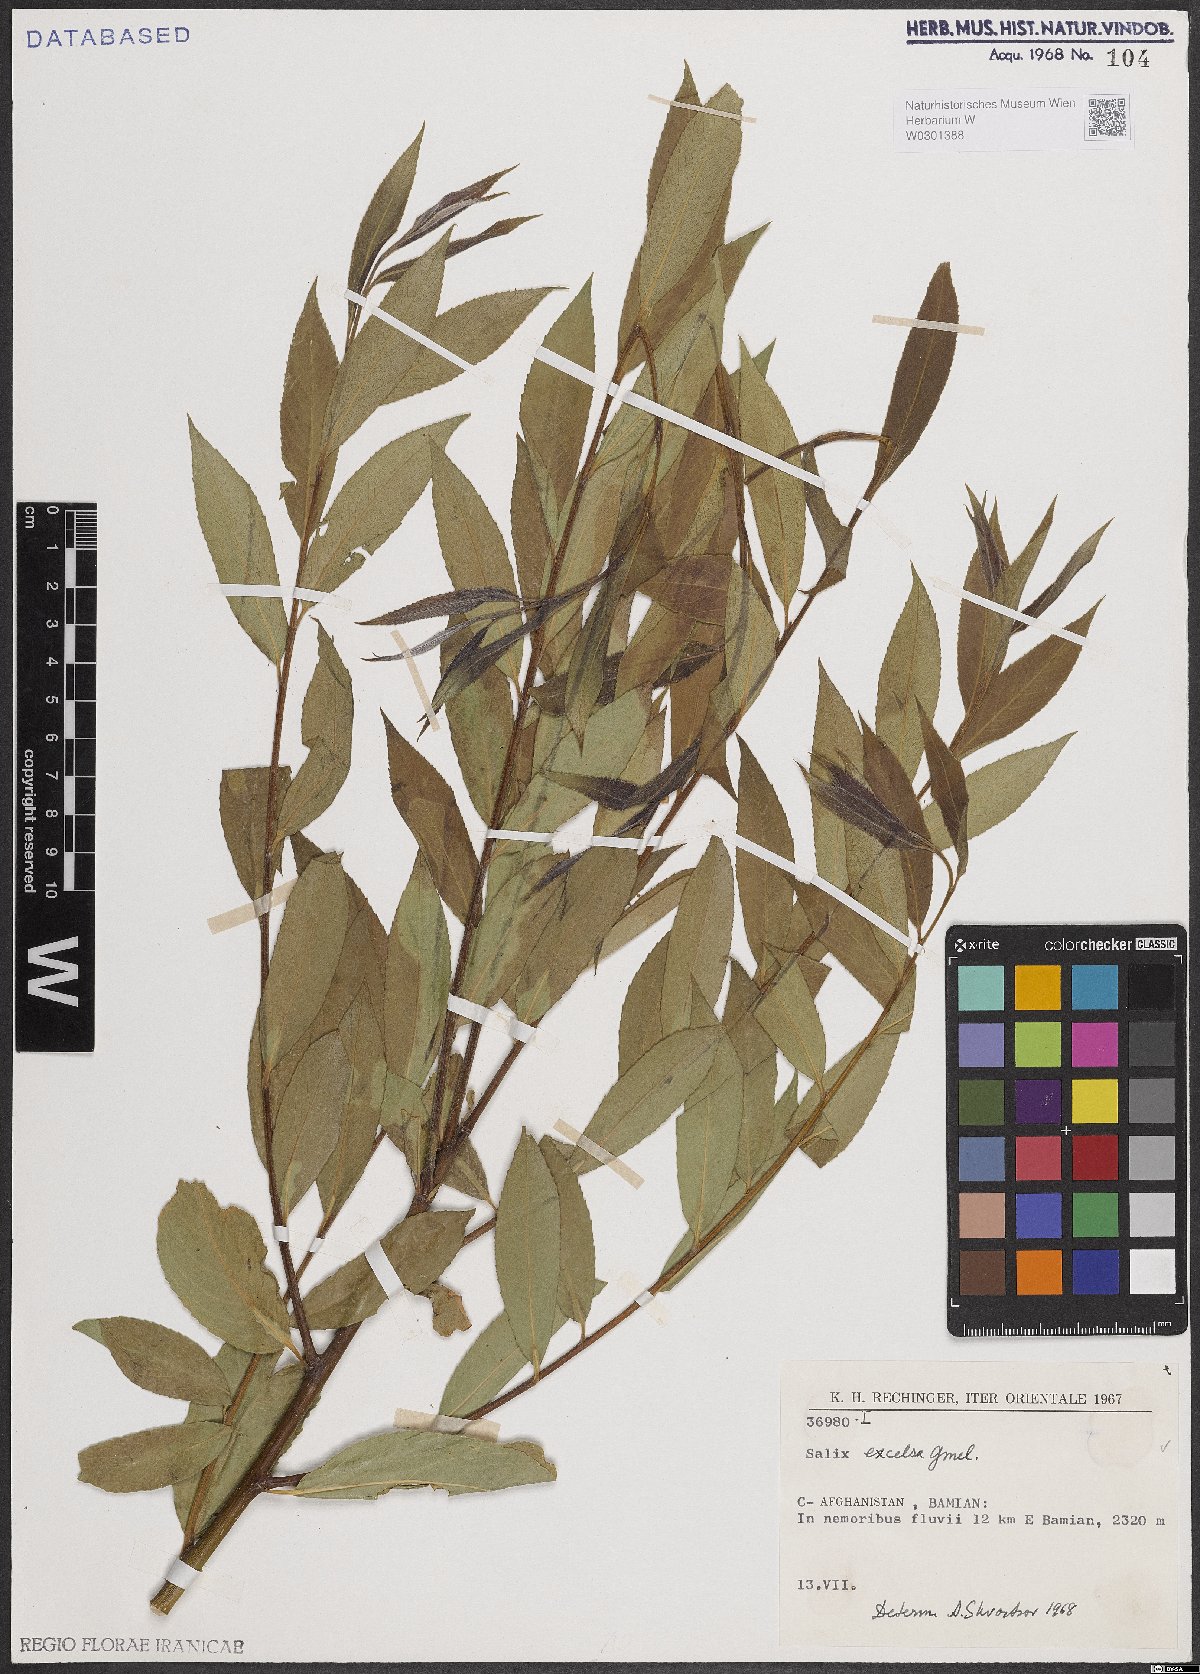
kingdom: Plantae
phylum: Tracheophyta
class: Magnoliopsida
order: Malpighiales
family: Salicaceae
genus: Salix
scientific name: Salix excelsa
